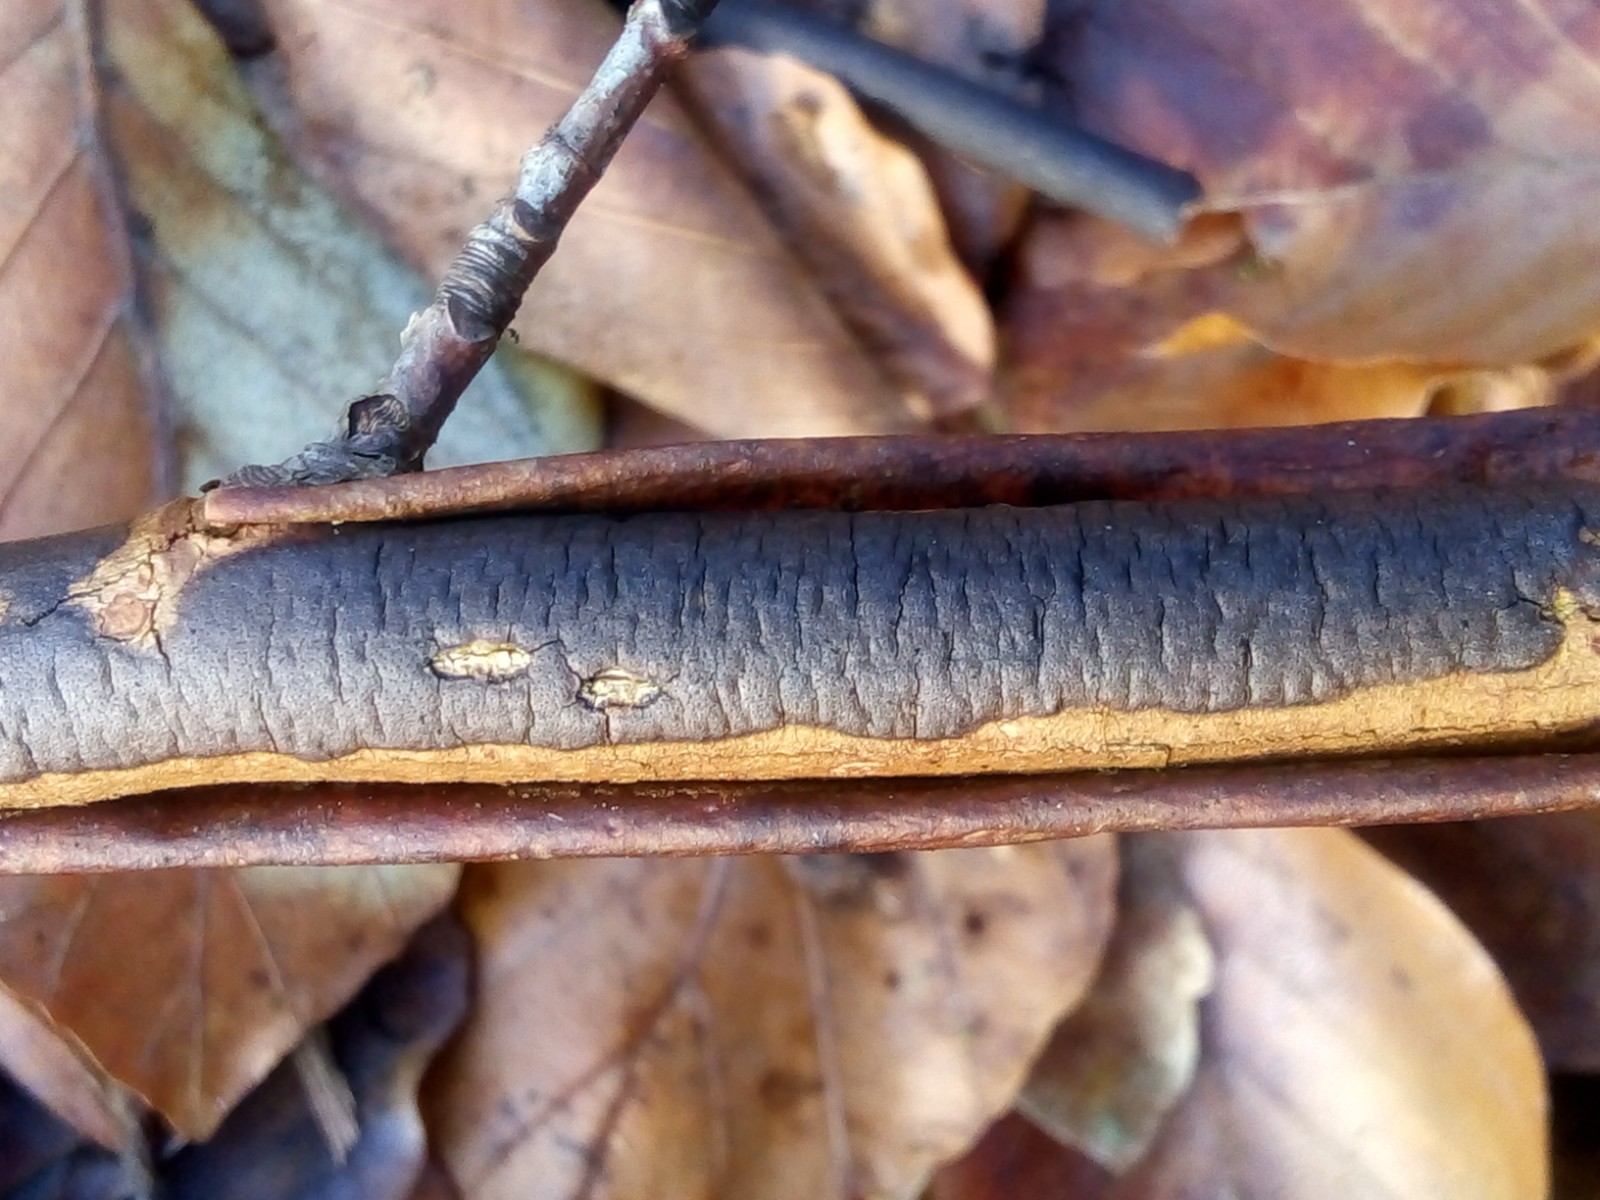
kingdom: Fungi
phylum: Ascomycota
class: Sordariomycetes
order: Xylariales
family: Diatrypaceae
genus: Diatrype
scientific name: Diatrype decorticata
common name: barksprænger-kulskorpe
